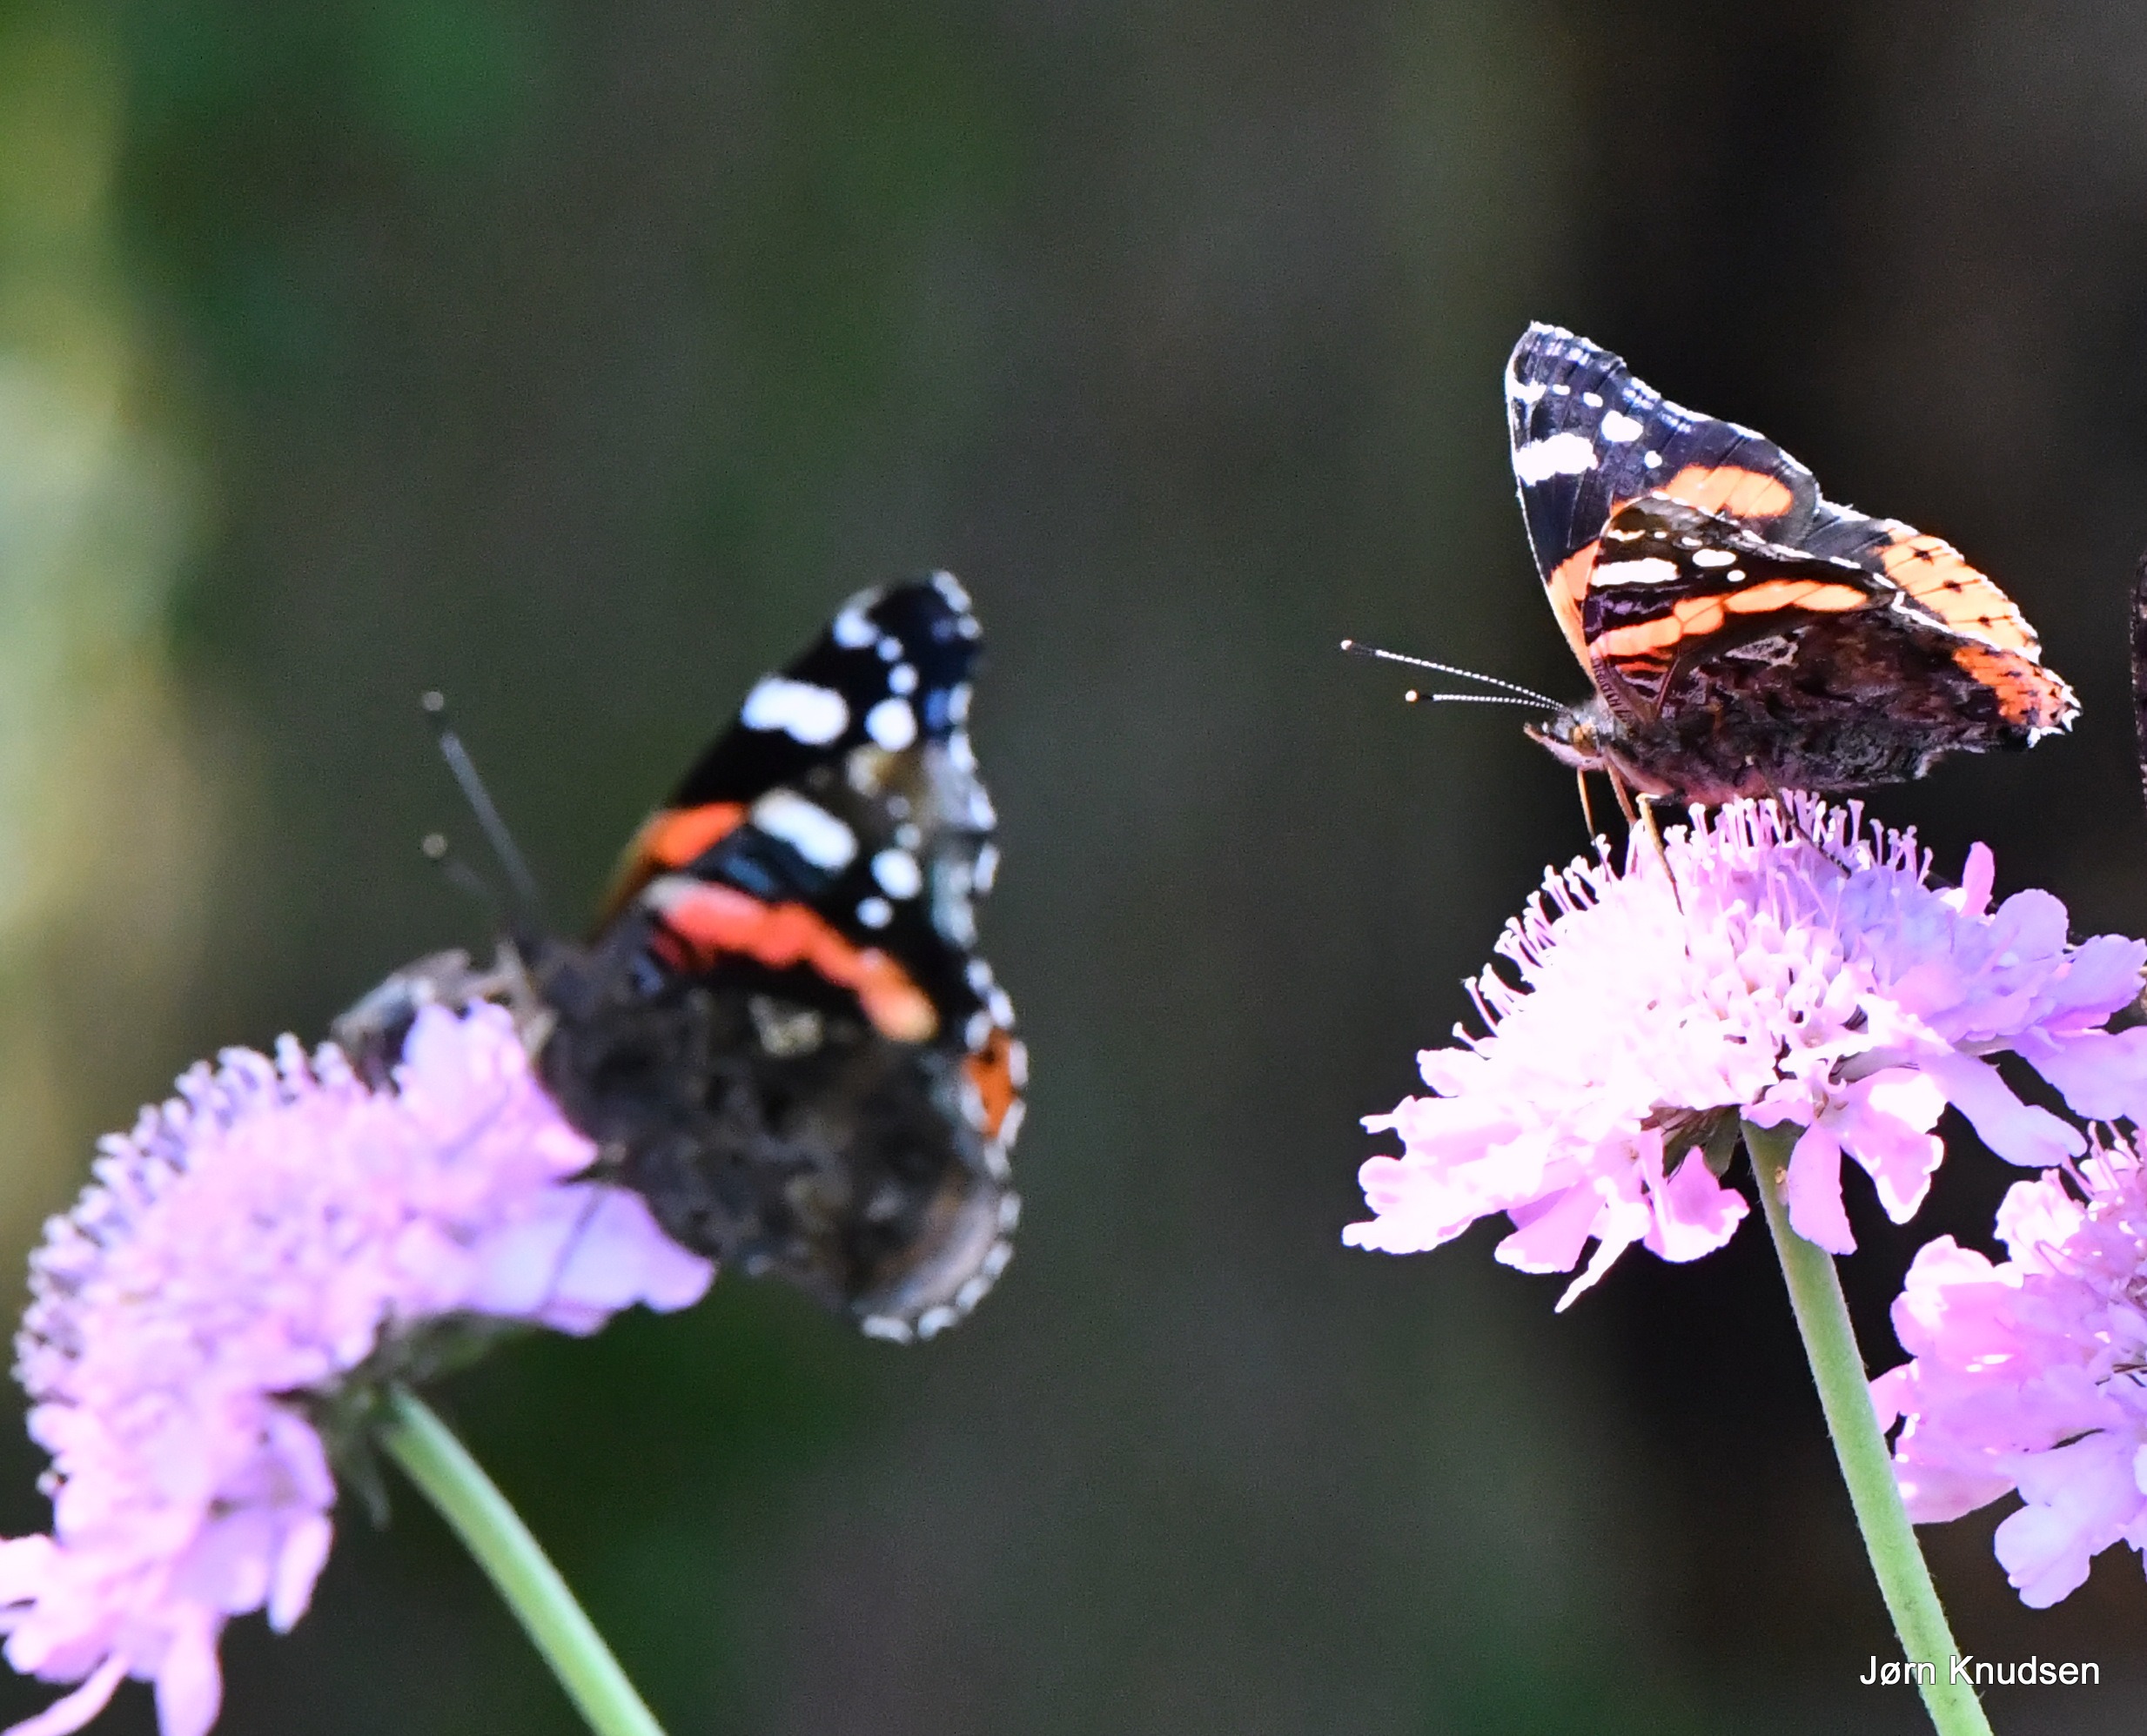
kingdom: Animalia
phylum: Arthropoda
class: Insecta
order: Lepidoptera
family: Nymphalidae
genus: Vanessa
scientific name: Vanessa atalanta
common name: Admiral
